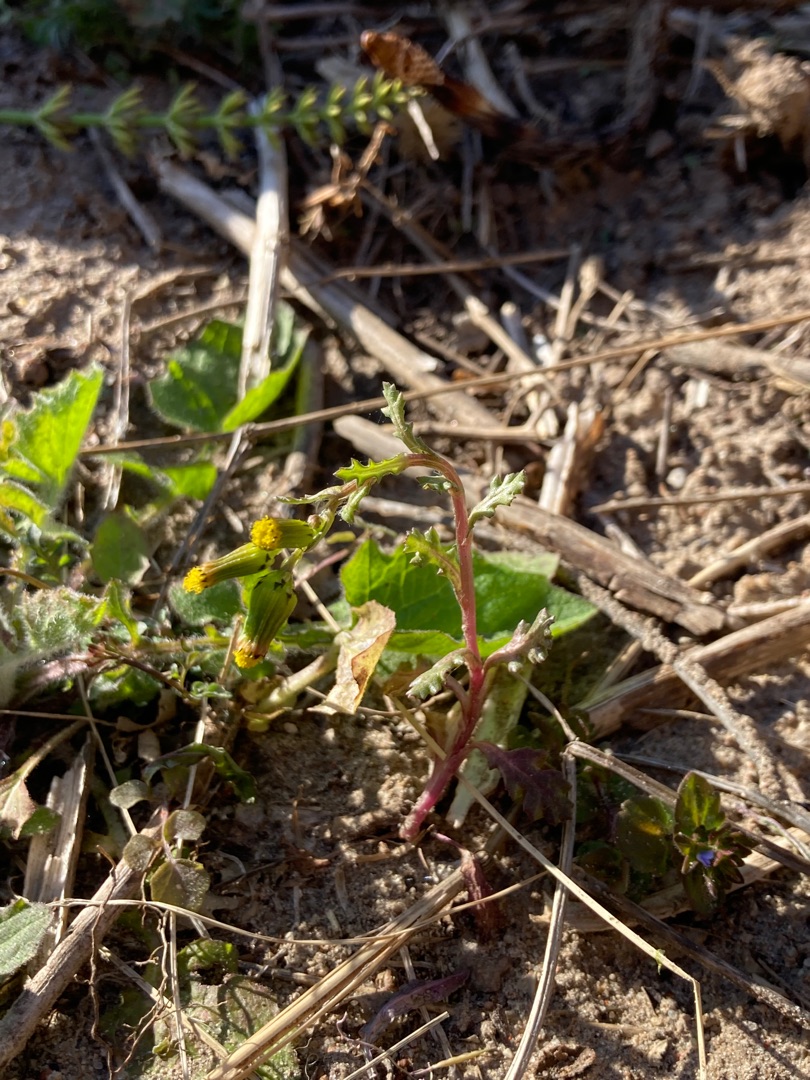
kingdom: Plantae
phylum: Tracheophyta
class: Magnoliopsida
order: Asterales
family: Asteraceae
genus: Senecio
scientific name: Senecio vulgaris
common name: Almindelig brandbæger
